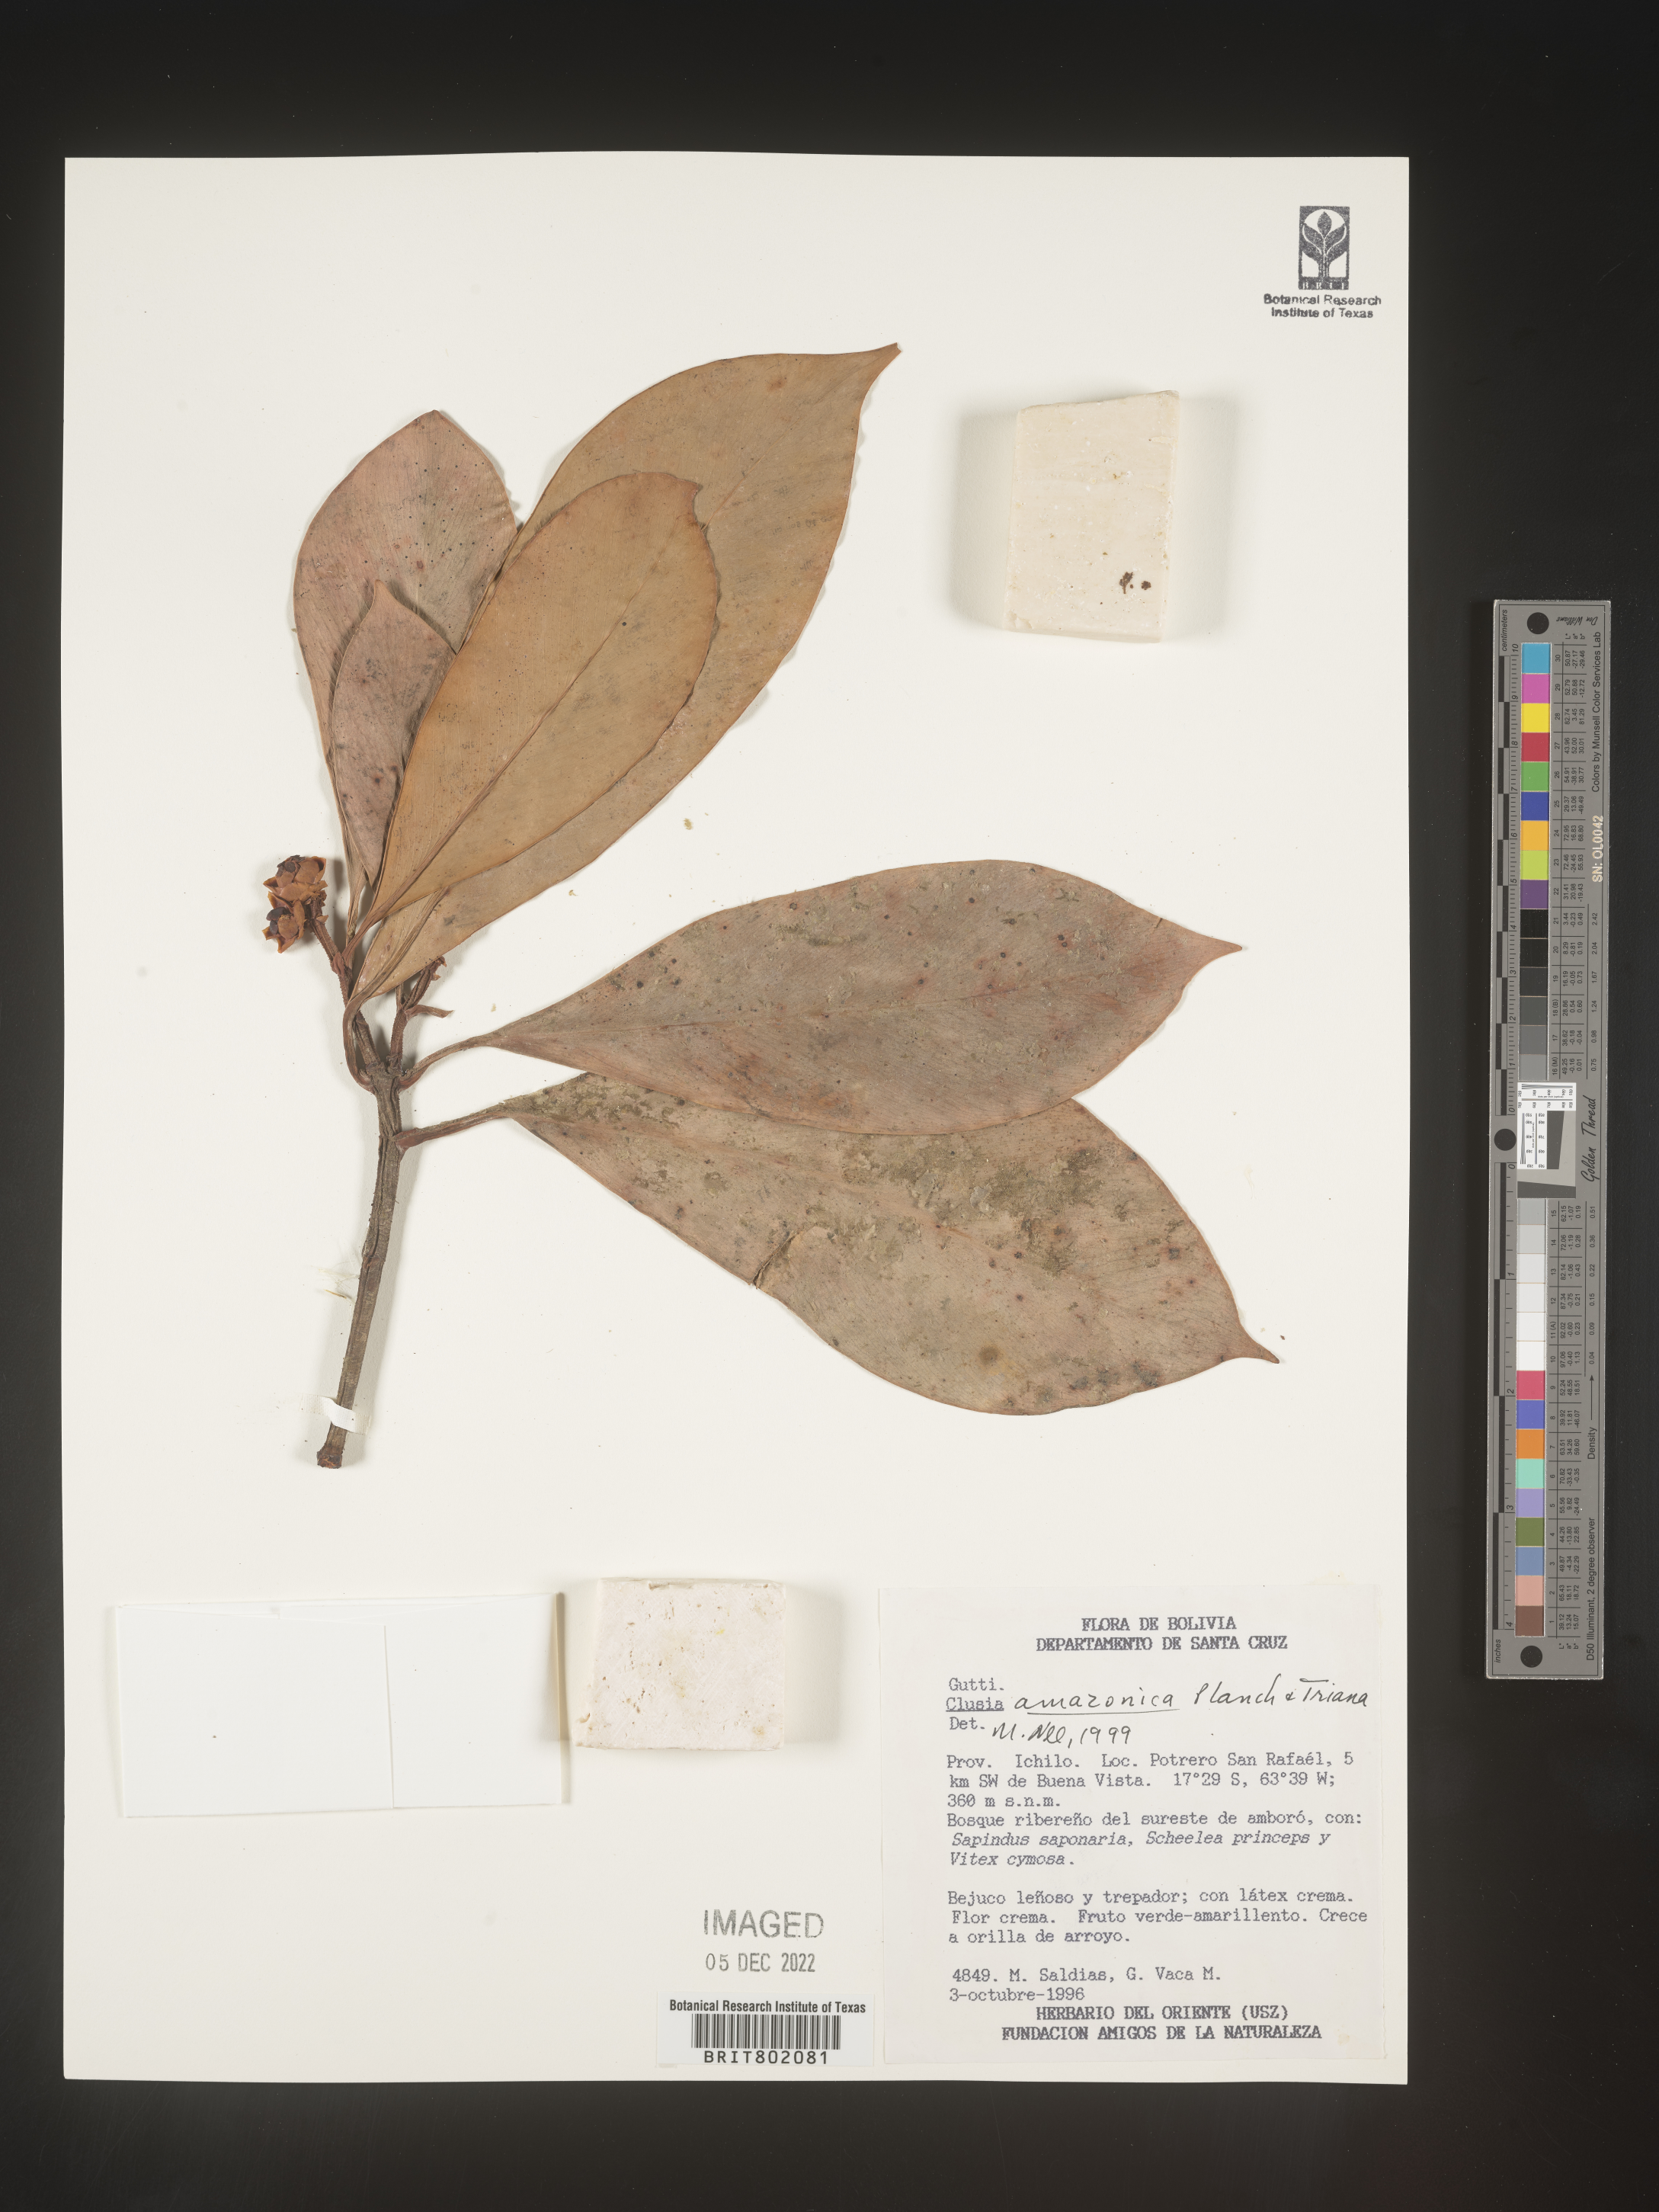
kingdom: Plantae
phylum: Tracheophyta
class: Magnoliopsida
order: Malpighiales
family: Clusiaceae
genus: Clusia
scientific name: Clusia amazonica
